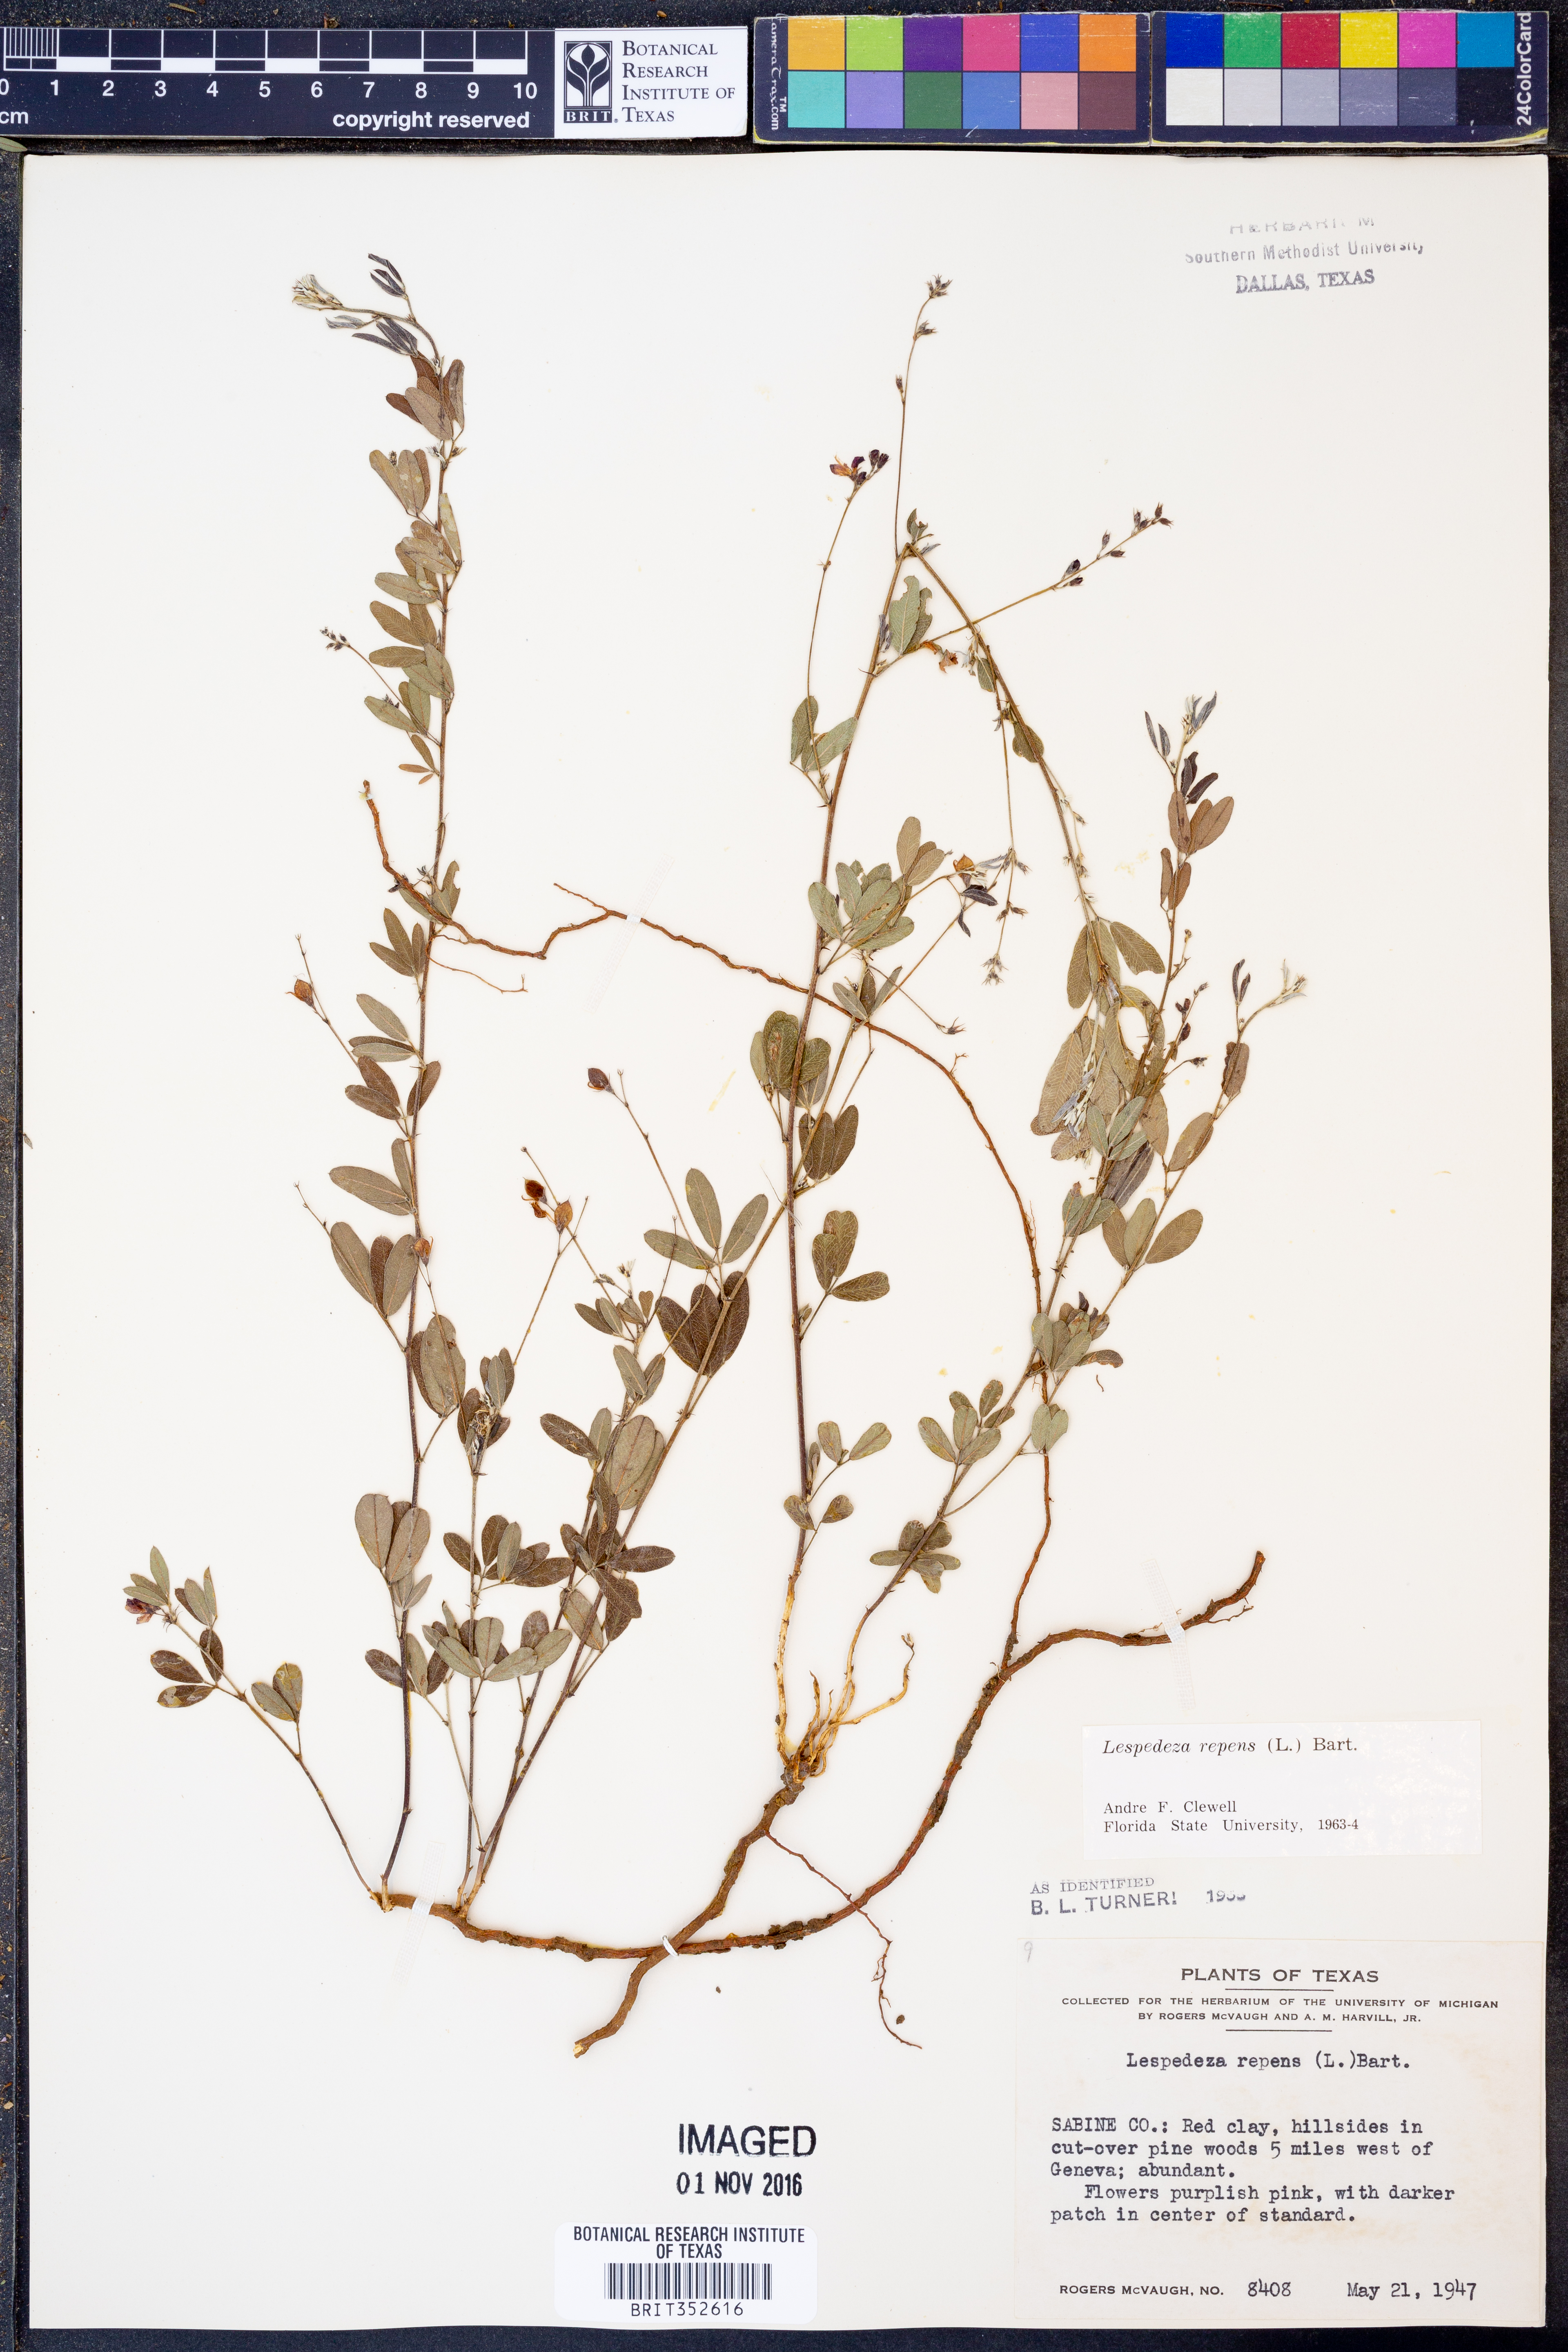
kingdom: Plantae
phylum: Tracheophyta
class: Magnoliopsida
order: Fabales
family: Fabaceae
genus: Lespedeza
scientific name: Lespedeza repens
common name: Creeping bush-clover
